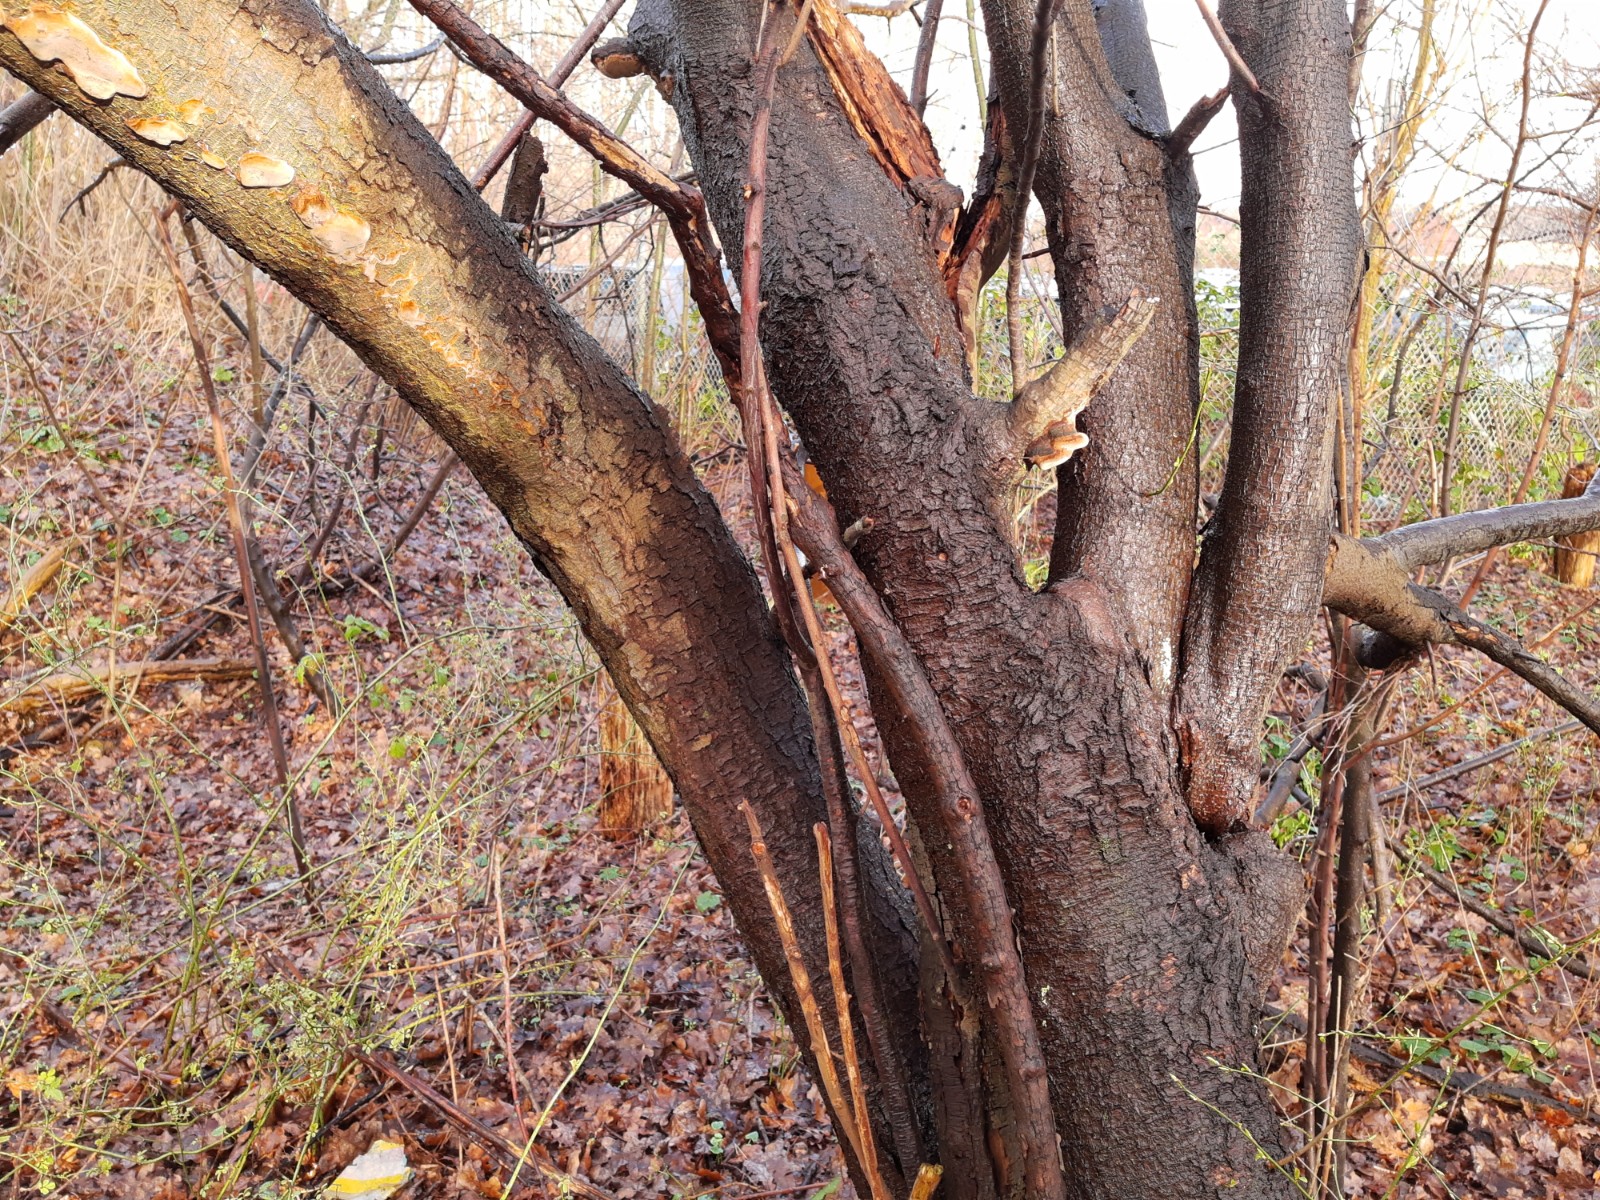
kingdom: Fungi
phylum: Basidiomycota
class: Agaricomycetes
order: Hymenochaetales
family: Hymenochaetaceae
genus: Phellinus
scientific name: Phellinus pomaceus
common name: blomme-ildporesvamp
